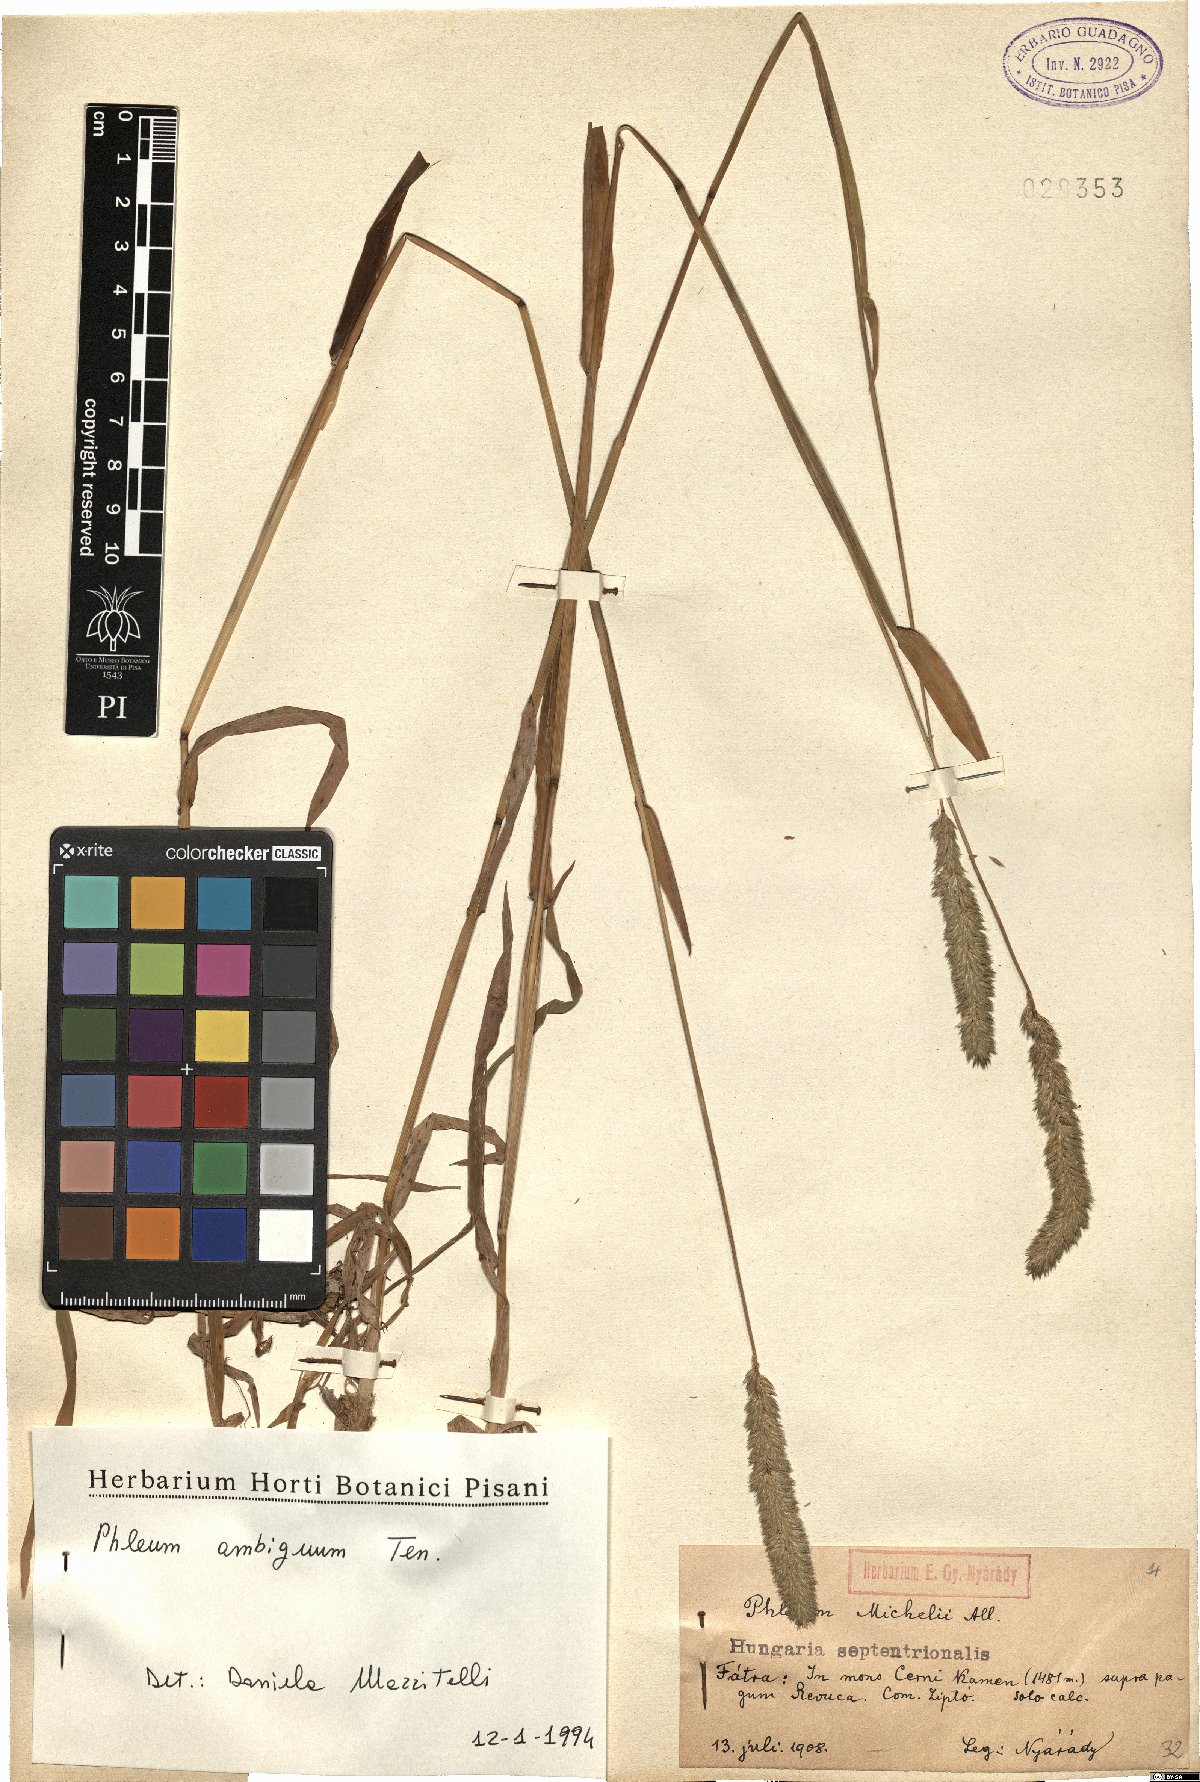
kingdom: Plantae
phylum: Tracheophyta
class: Liliopsida
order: Poales
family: Poaceae
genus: Phleum
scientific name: Phleum hirsutum
